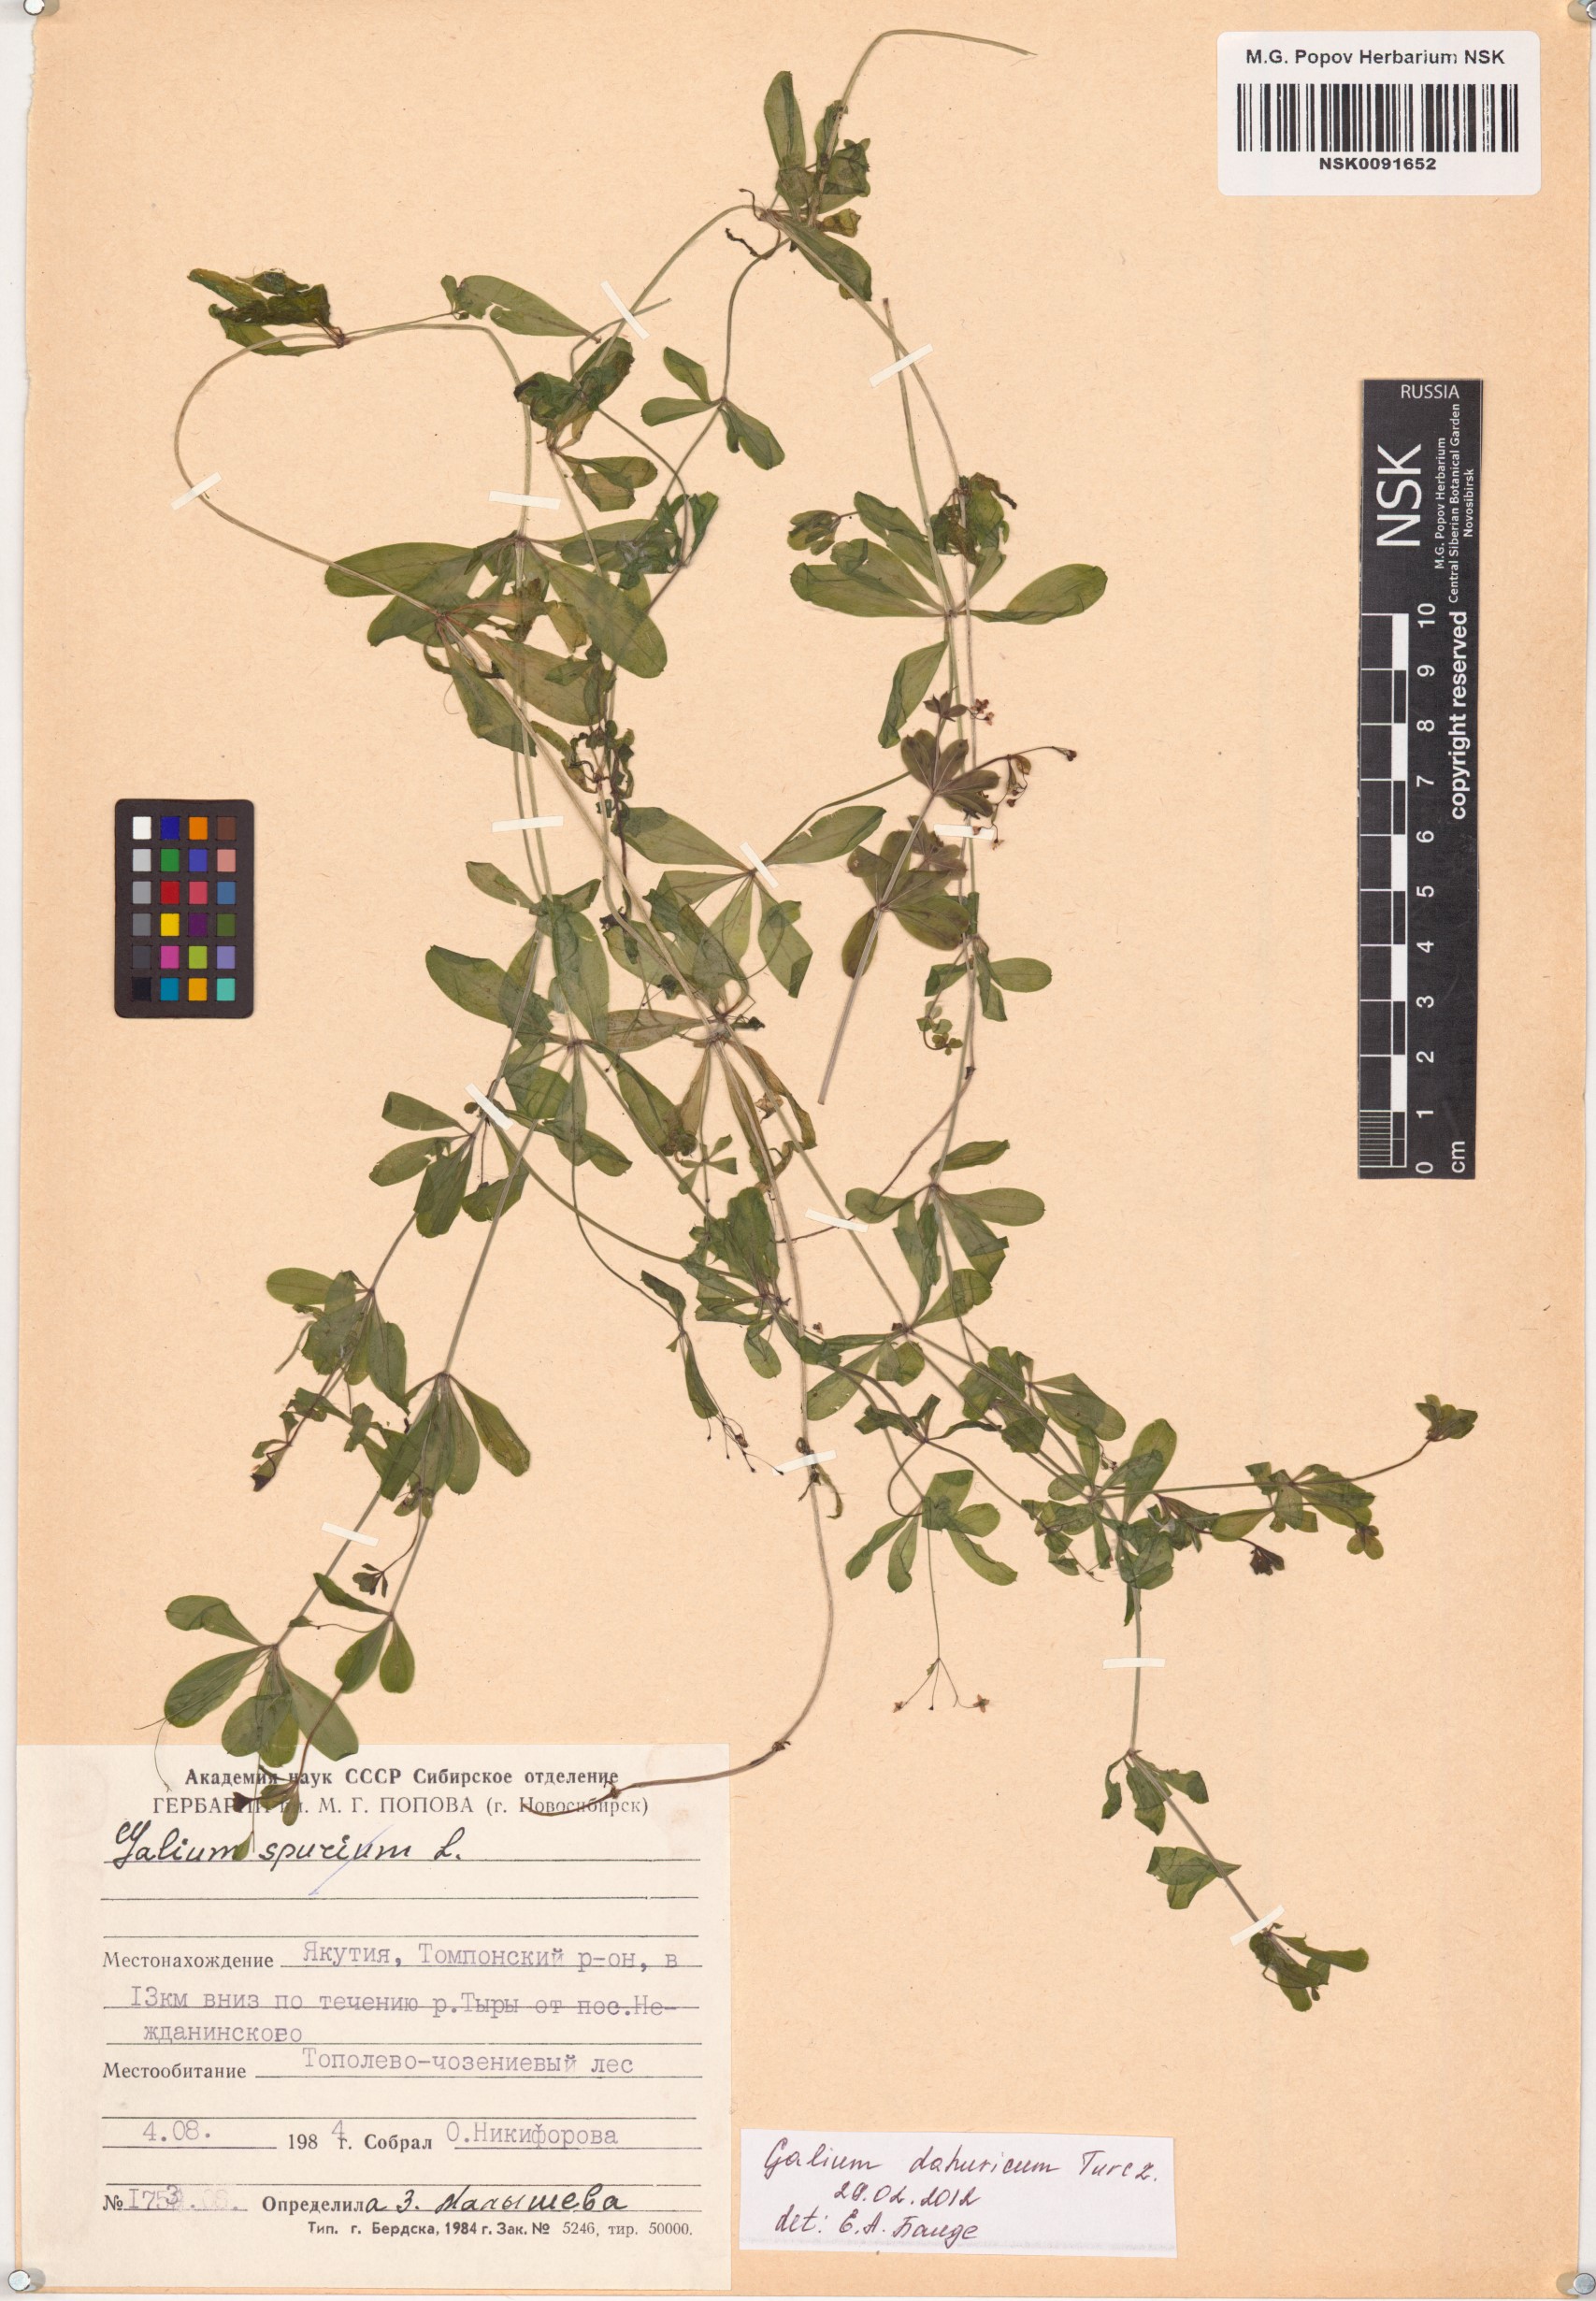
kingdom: Plantae
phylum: Tracheophyta
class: Magnoliopsida
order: Gentianales
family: Rubiaceae
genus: Galium
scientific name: Galium dahuricum
